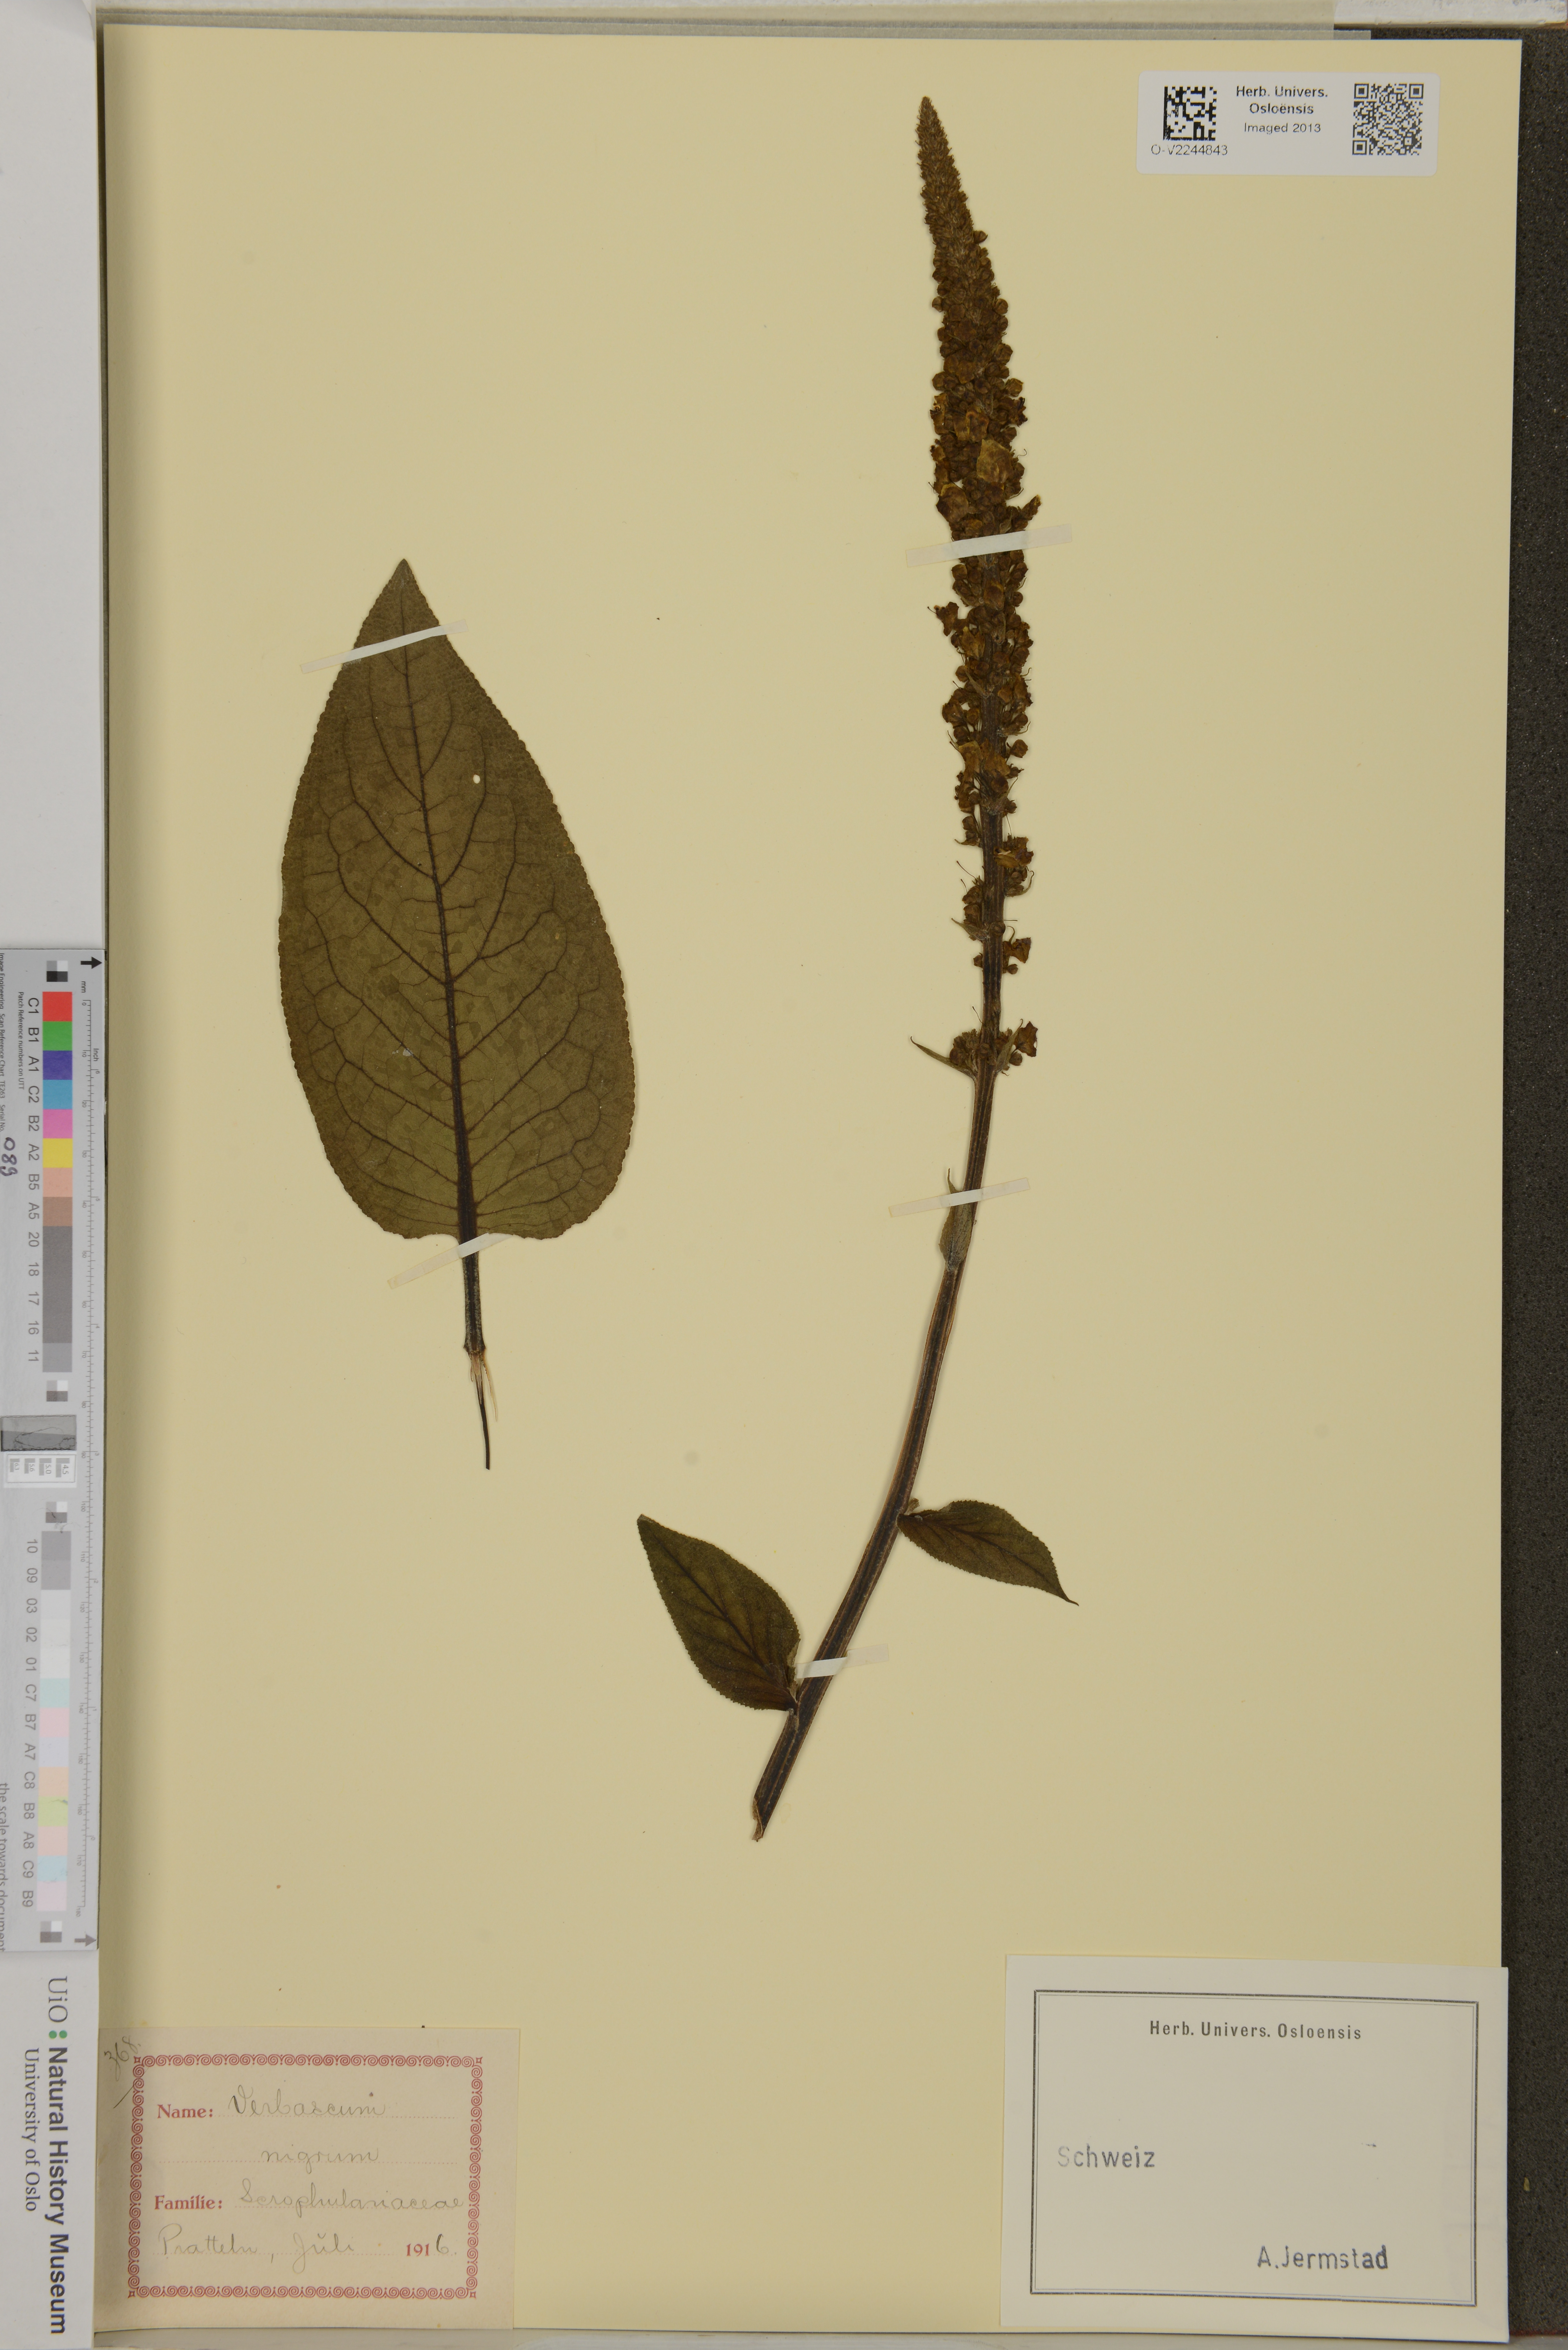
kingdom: Plantae
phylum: Tracheophyta
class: Magnoliopsida
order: Lamiales
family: Scrophulariaceae
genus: Verbascum
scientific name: Verbascum nigrum
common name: Dark mullein
